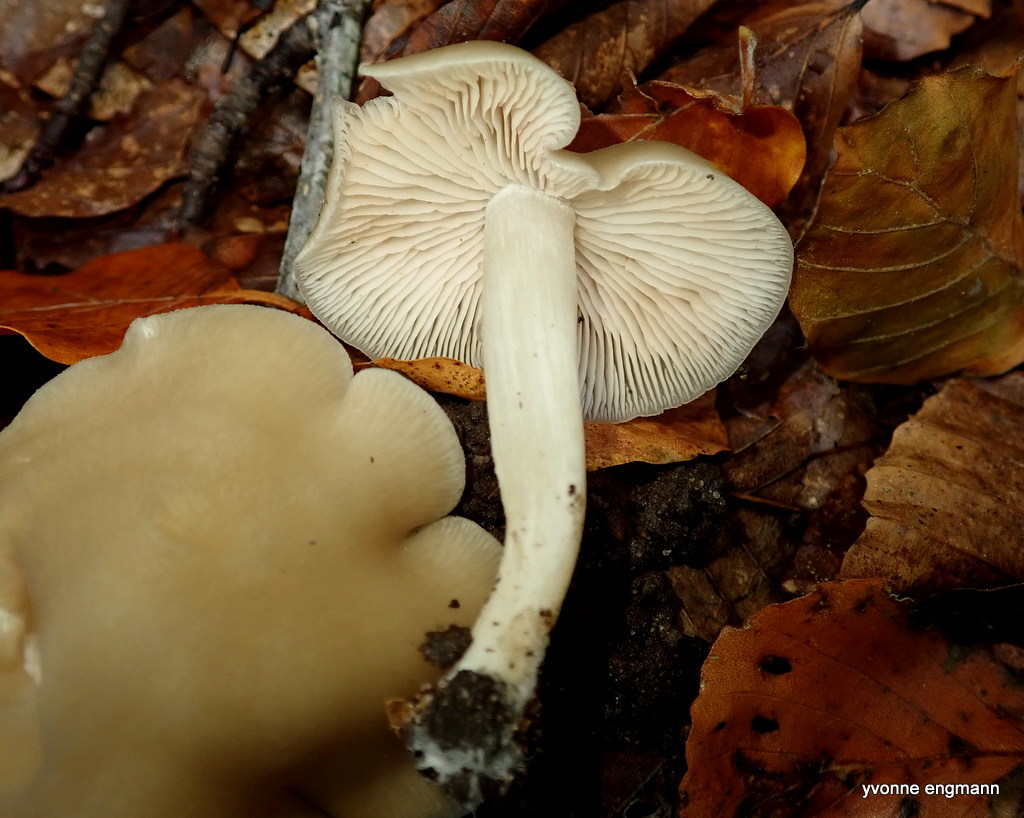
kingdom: Fungi
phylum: Basidiomycota
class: Agaricomycetes
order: Agaricales
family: Entolomataceae
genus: Entoloma
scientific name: Entoloma rhodopolium
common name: skov-rødblad
